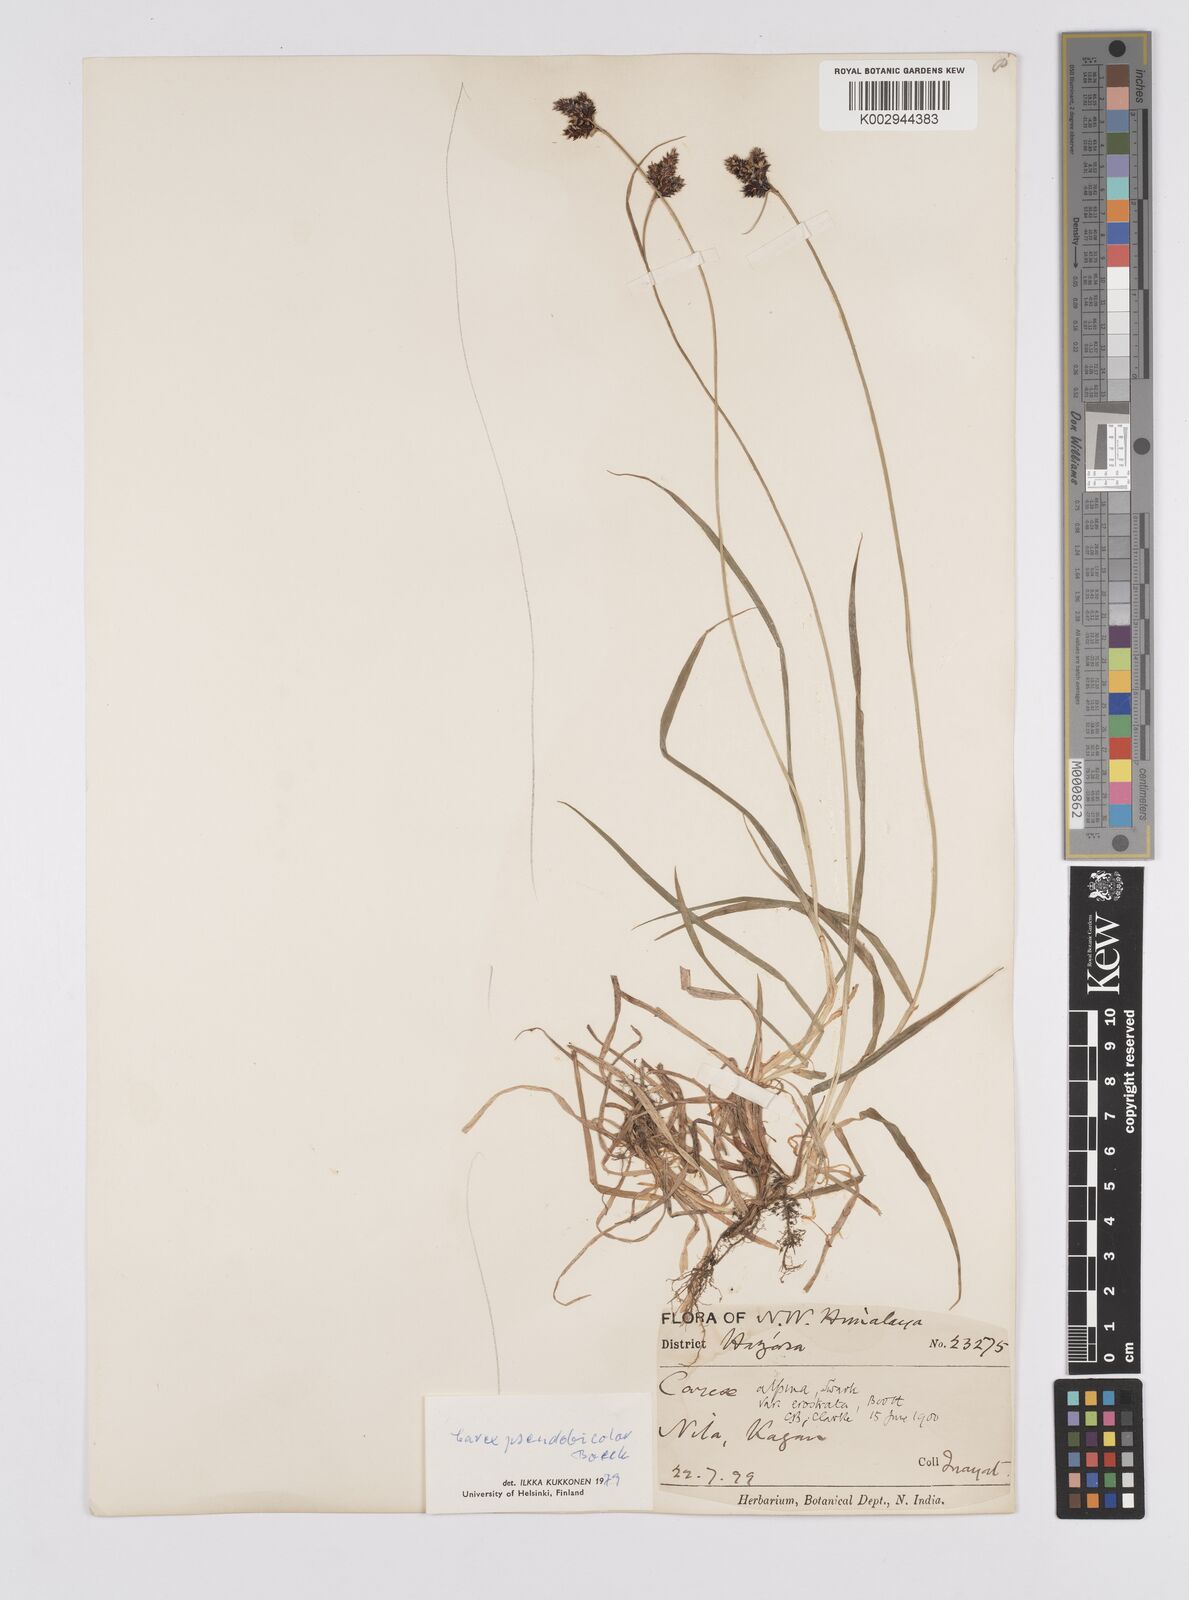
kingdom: Plantae
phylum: Tracheophyta
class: Liliopsida
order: Poales
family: Cyperaceae
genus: Carex
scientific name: Carex norvegica
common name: Close-headed alpine-sedge
